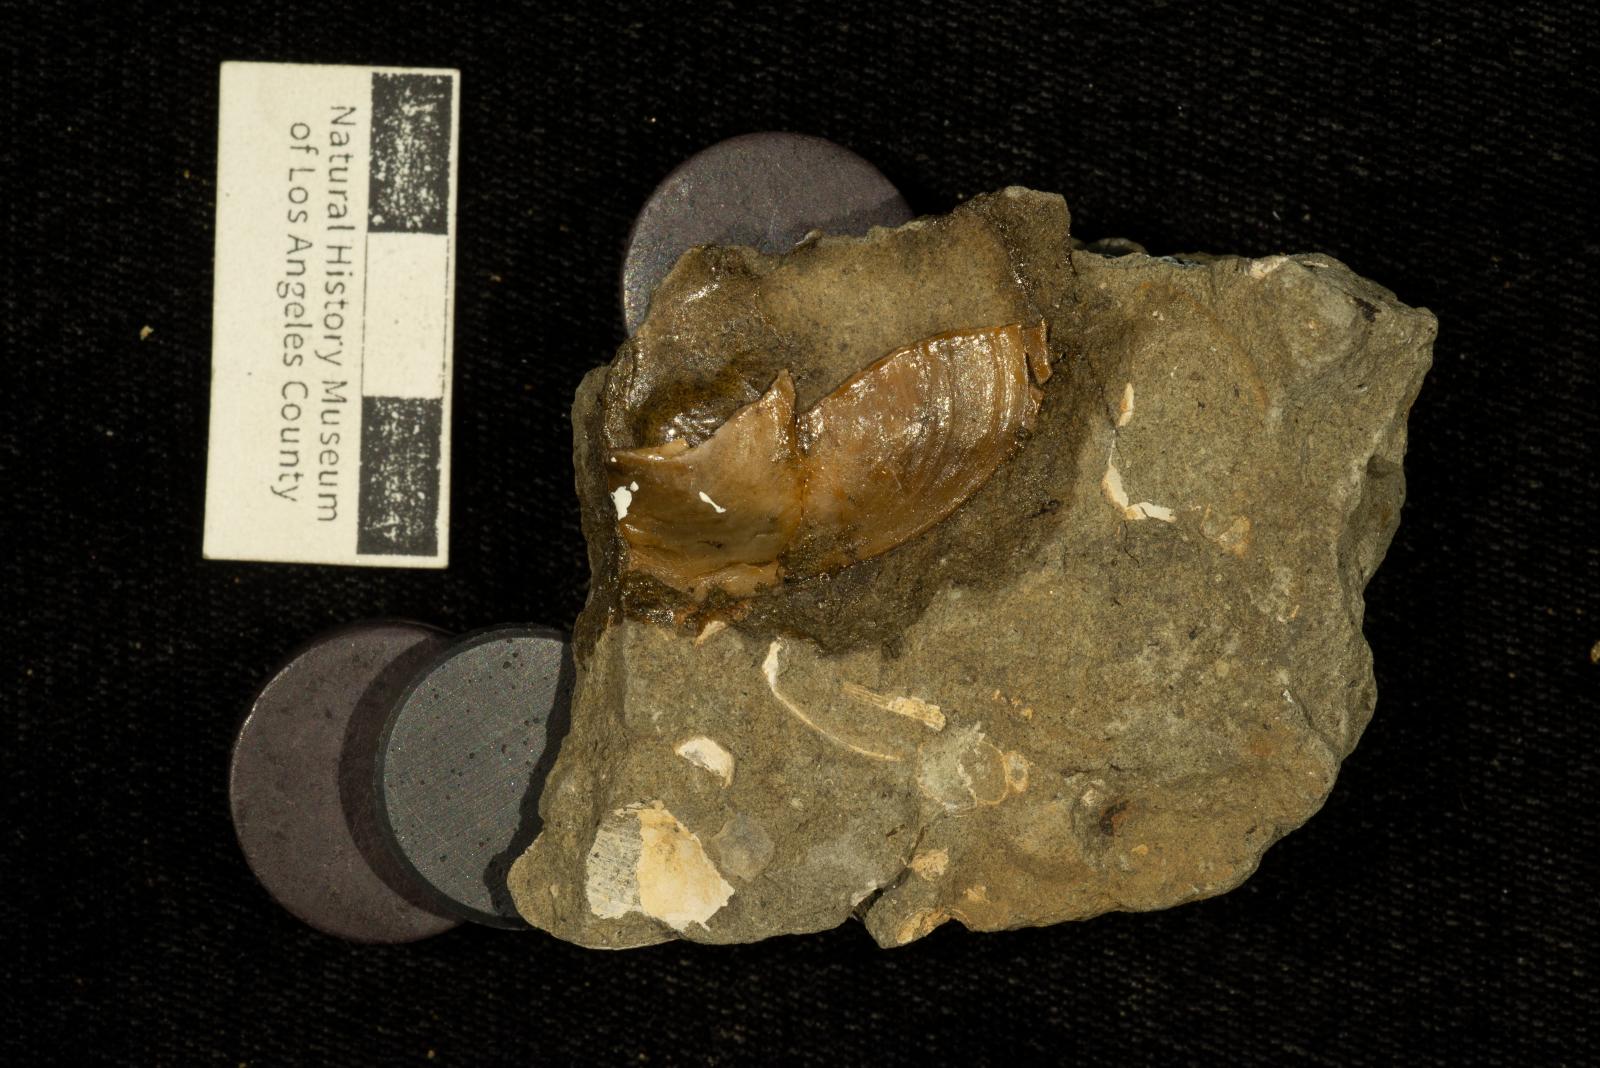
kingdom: Animalia
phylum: Mollusca
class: Bivalvia
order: Ostreida
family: Gryphaeidae
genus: Pycnodonte
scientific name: Pycnodonte
